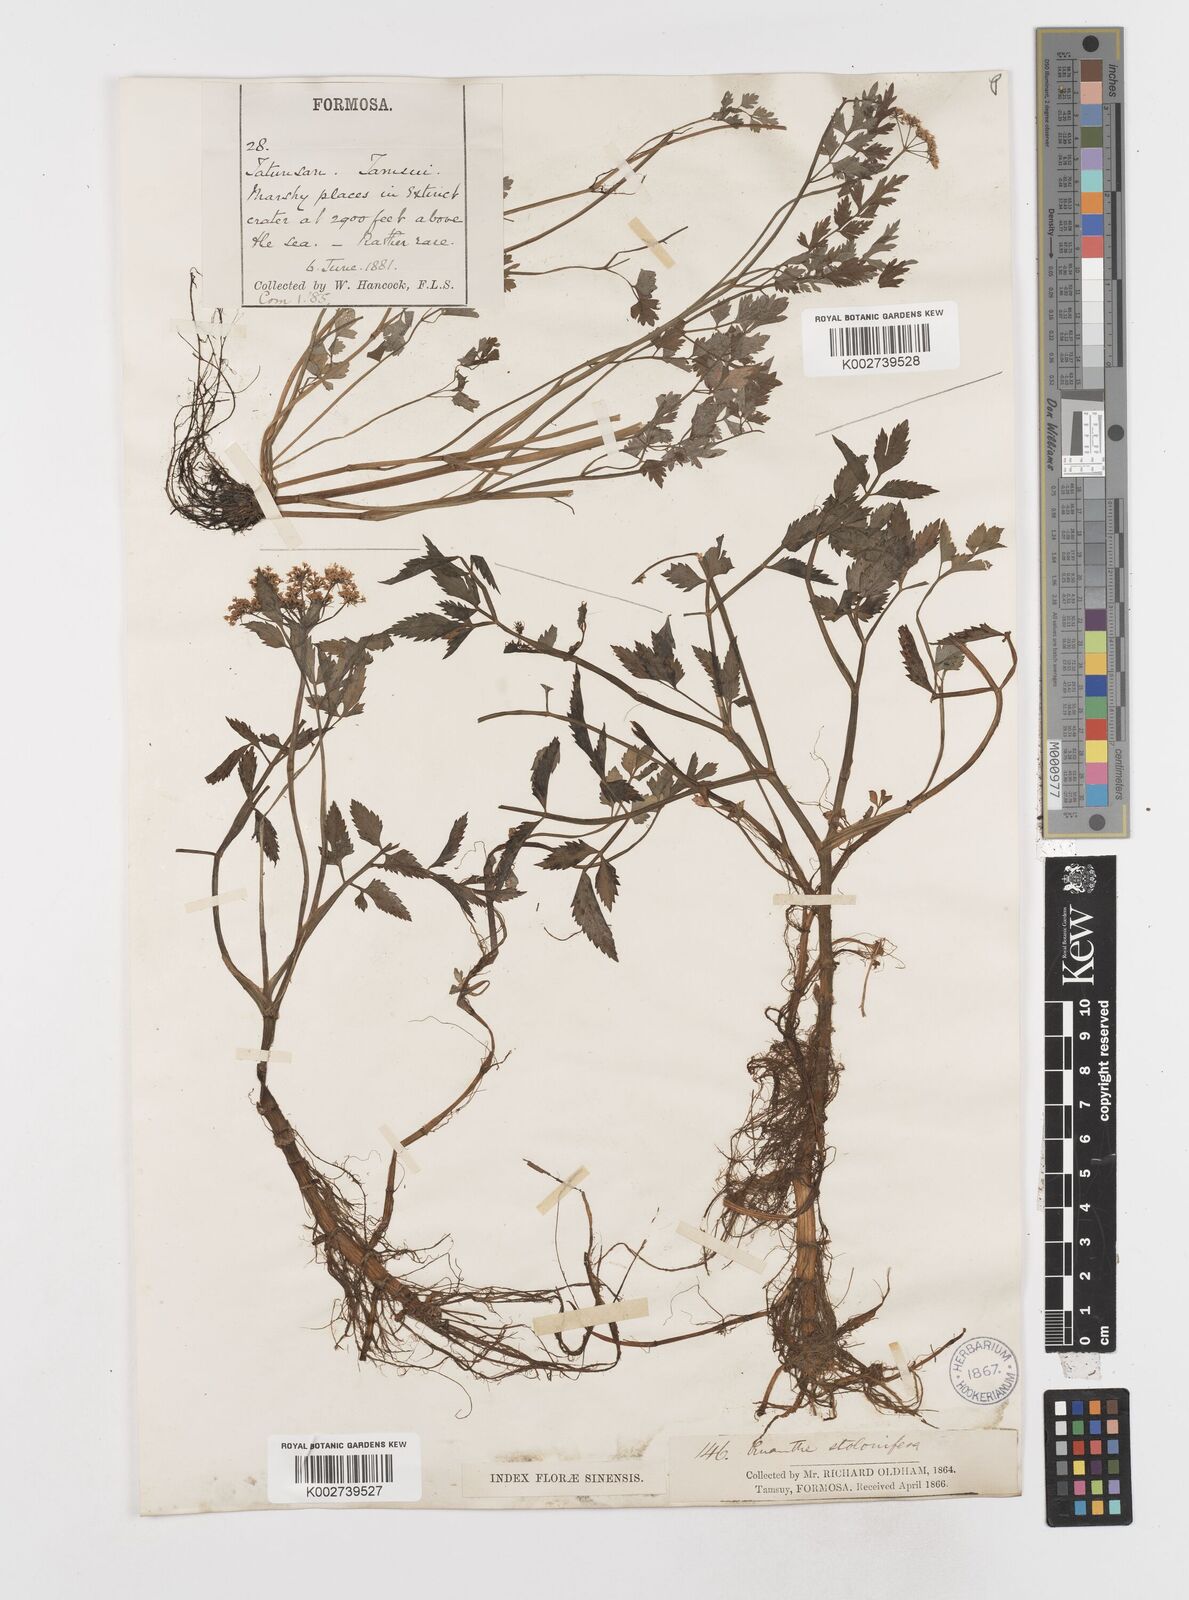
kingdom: Plantae
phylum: Tracheophyta
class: Magnoliopsida
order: Apiales
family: Apiaceae
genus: Oenanthe
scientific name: Oenanthe javanica
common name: Java water-dropwort
